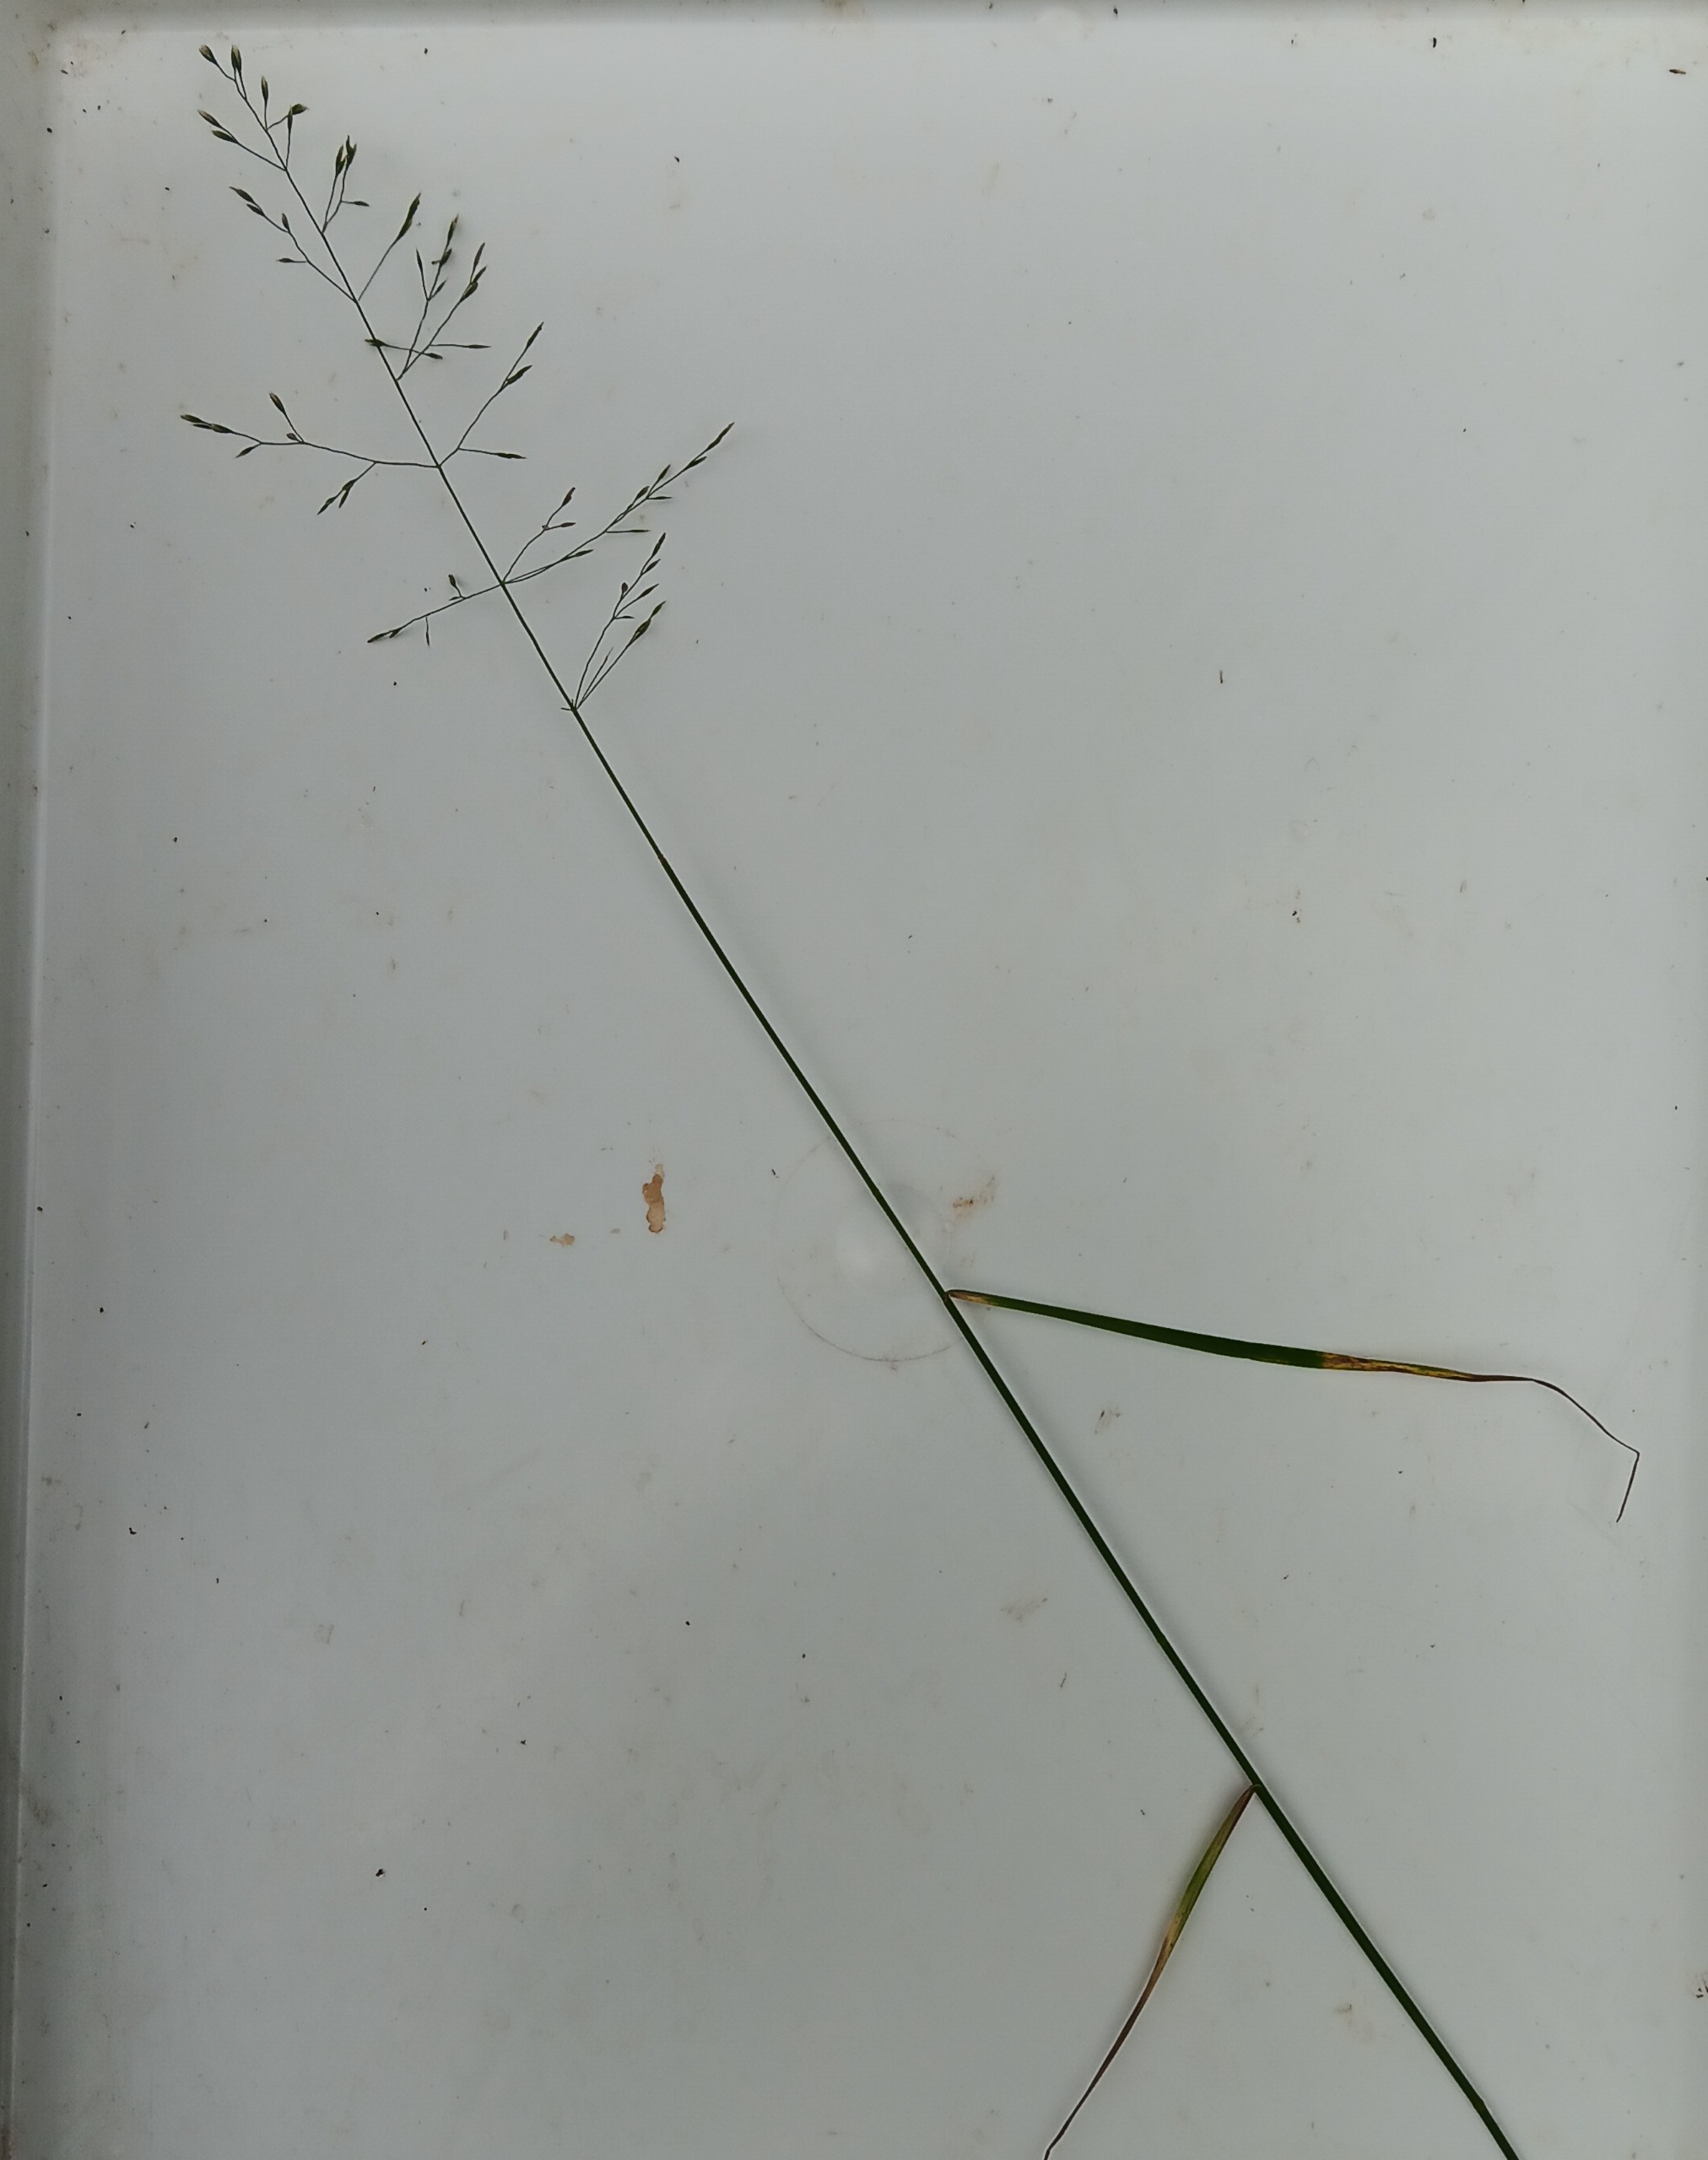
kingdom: Plantae
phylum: Tracheophyta
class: Liliopsida
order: Poales
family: Poaceae
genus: Poa
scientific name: Poa nemoralis
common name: Lund-rapgræs
